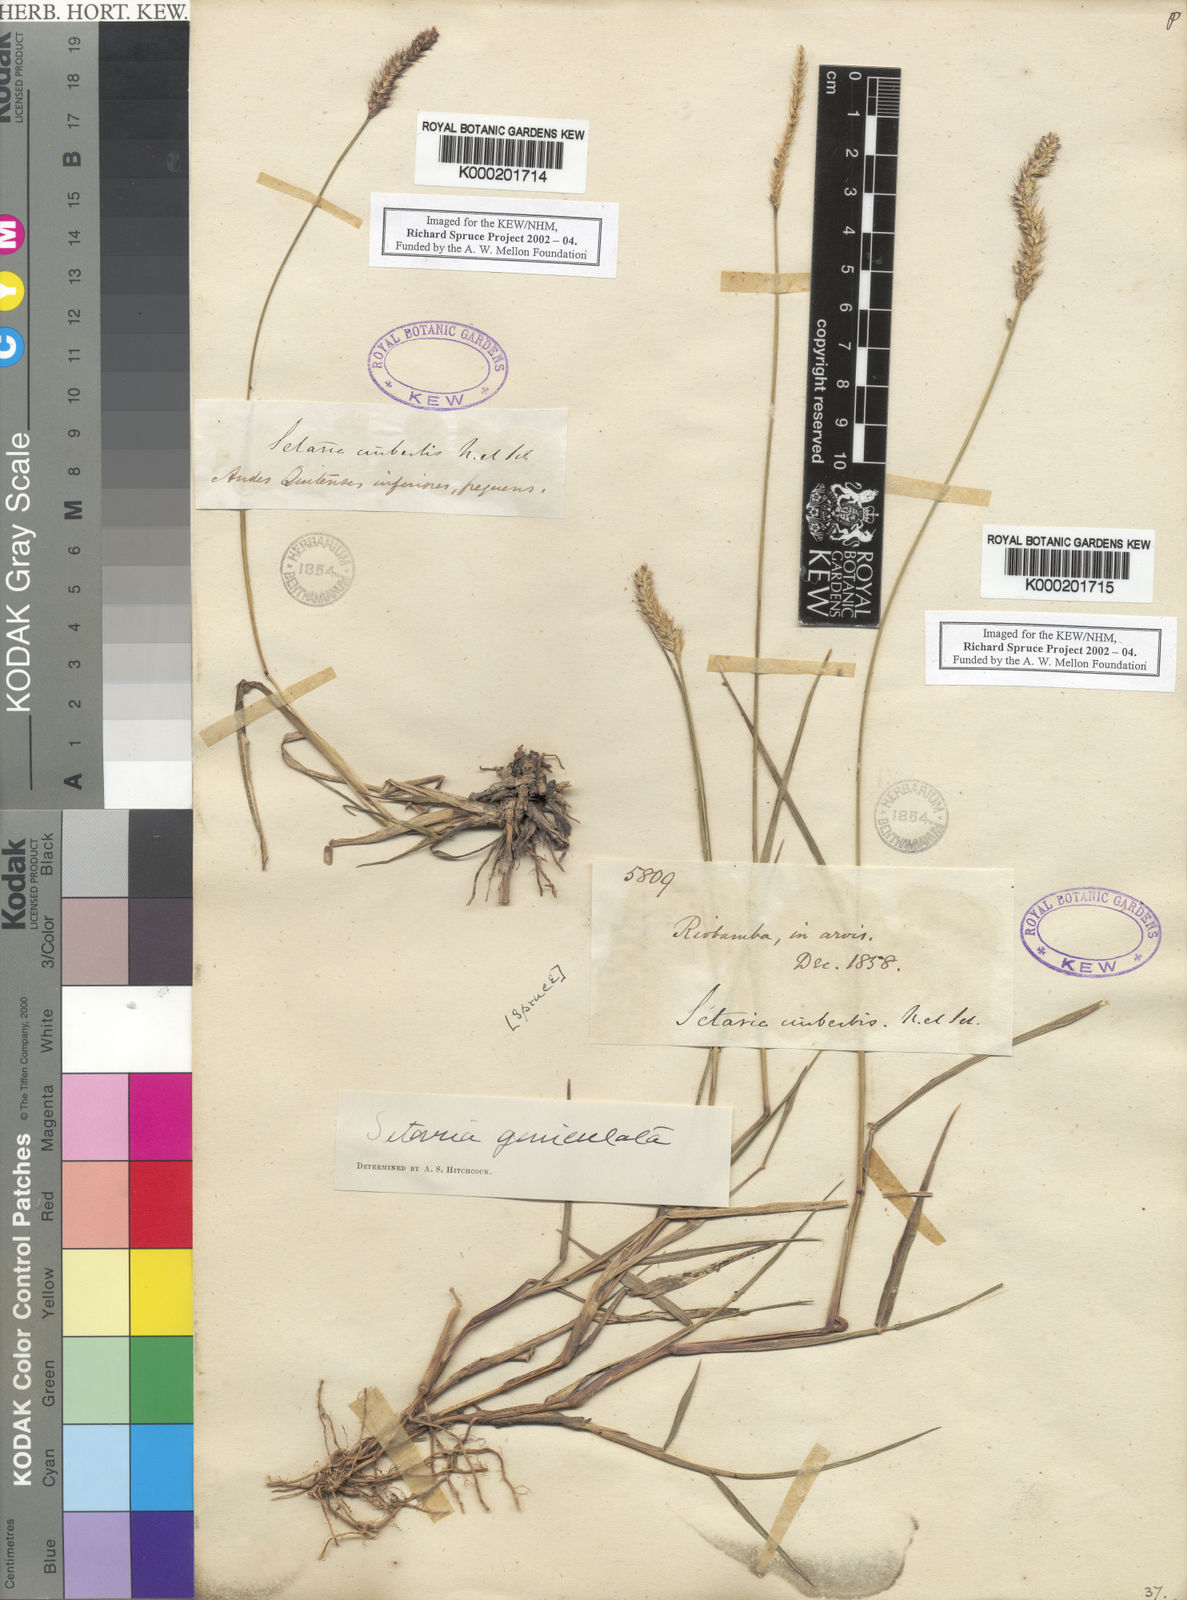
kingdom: Plantae
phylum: Tracheophyta
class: Liliopsida
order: Poales
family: Poaceae
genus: Setaria
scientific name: Setaria
